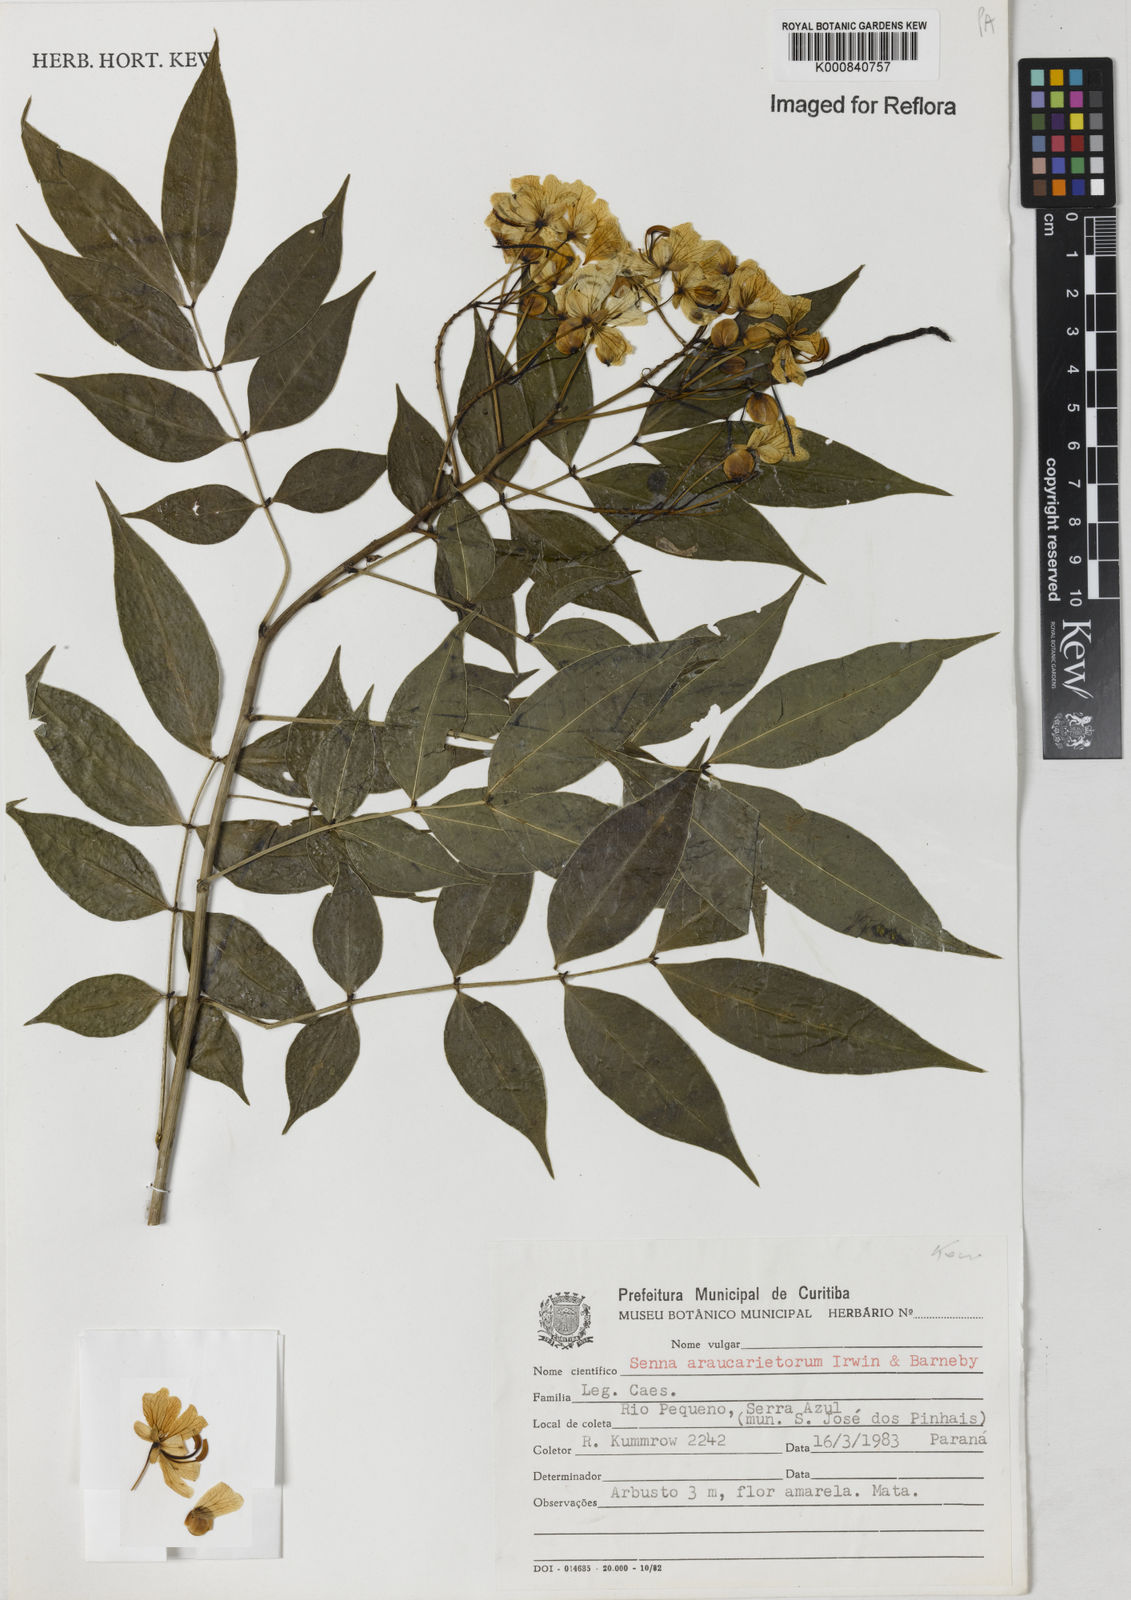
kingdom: Plantae
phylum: Tracheophyta
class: Magnoliopsida
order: Fabales
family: Fabaceae
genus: Senna
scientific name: Senna araucarietorum
